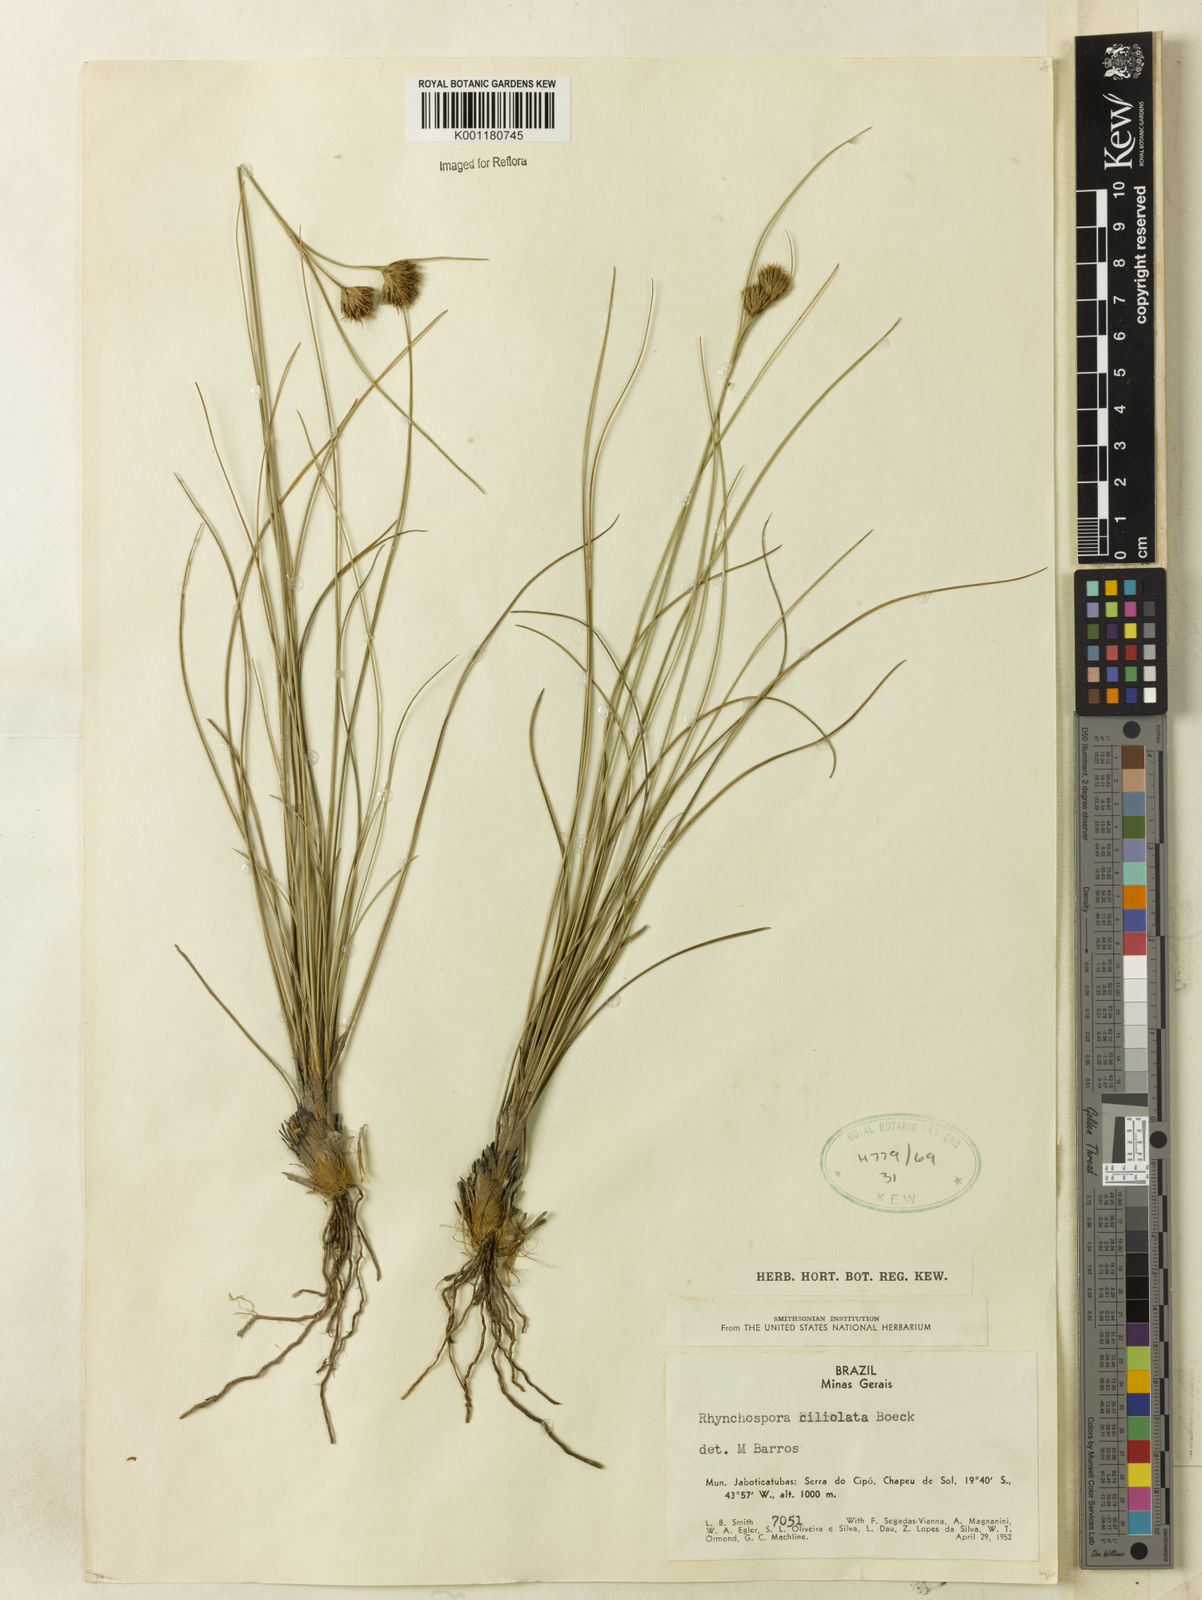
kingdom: Plantae
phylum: Tracheophyta
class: Liliopsida
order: Poales
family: Cyperaceae
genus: Rhynchospora
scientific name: Rhynchospora ciliolata
